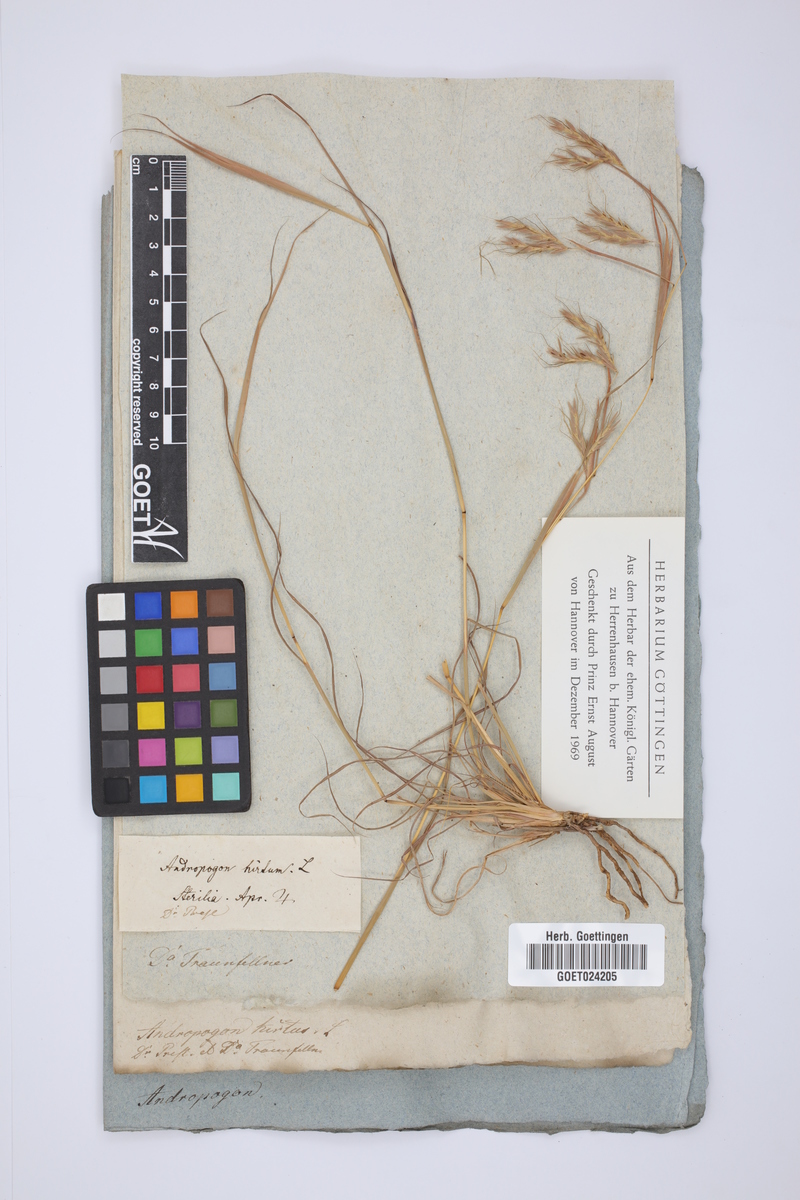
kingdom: Plantae
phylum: Tracheophyta
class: Liliopsida
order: Poales
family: Poaceae
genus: Hyparrhenia
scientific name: Hyparrhenia hirta
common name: Thatching grass
